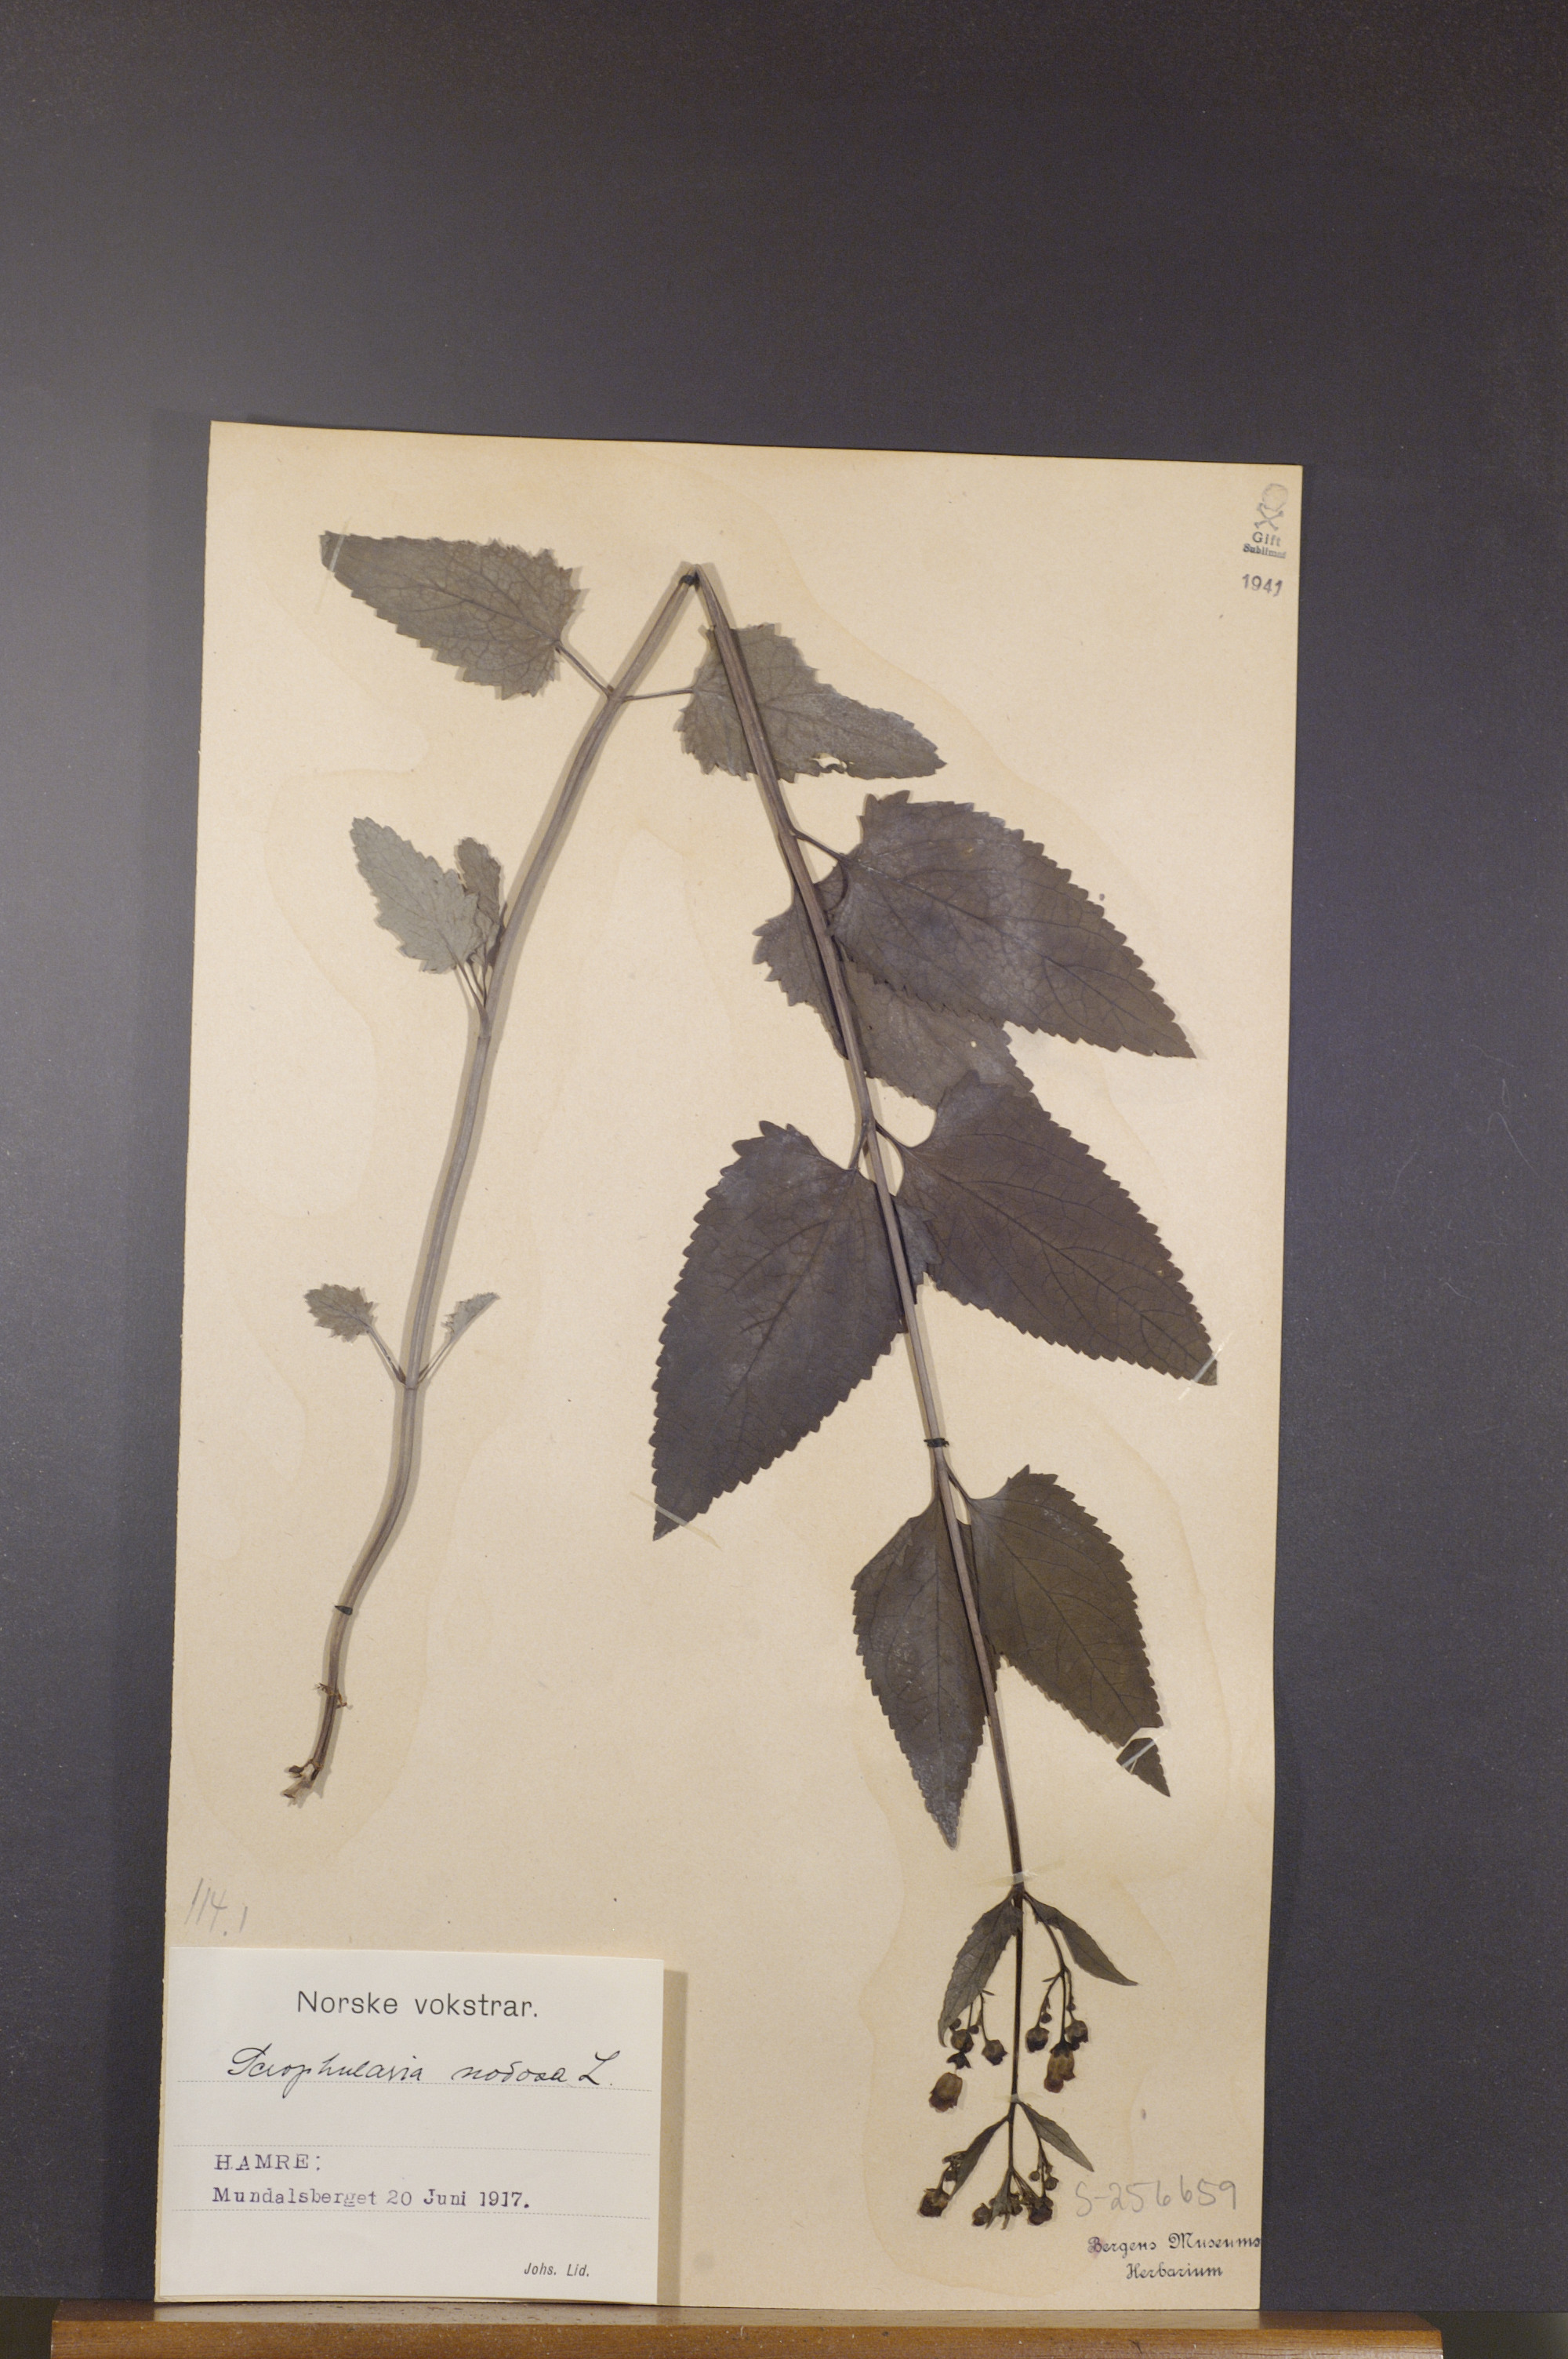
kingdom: Plantae
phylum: Tracheophyta
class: Magnoliopsida
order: Lamiales
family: Scrophulariaceae
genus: Scrophularia
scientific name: Scrophularia nodosa
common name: Common figwort
